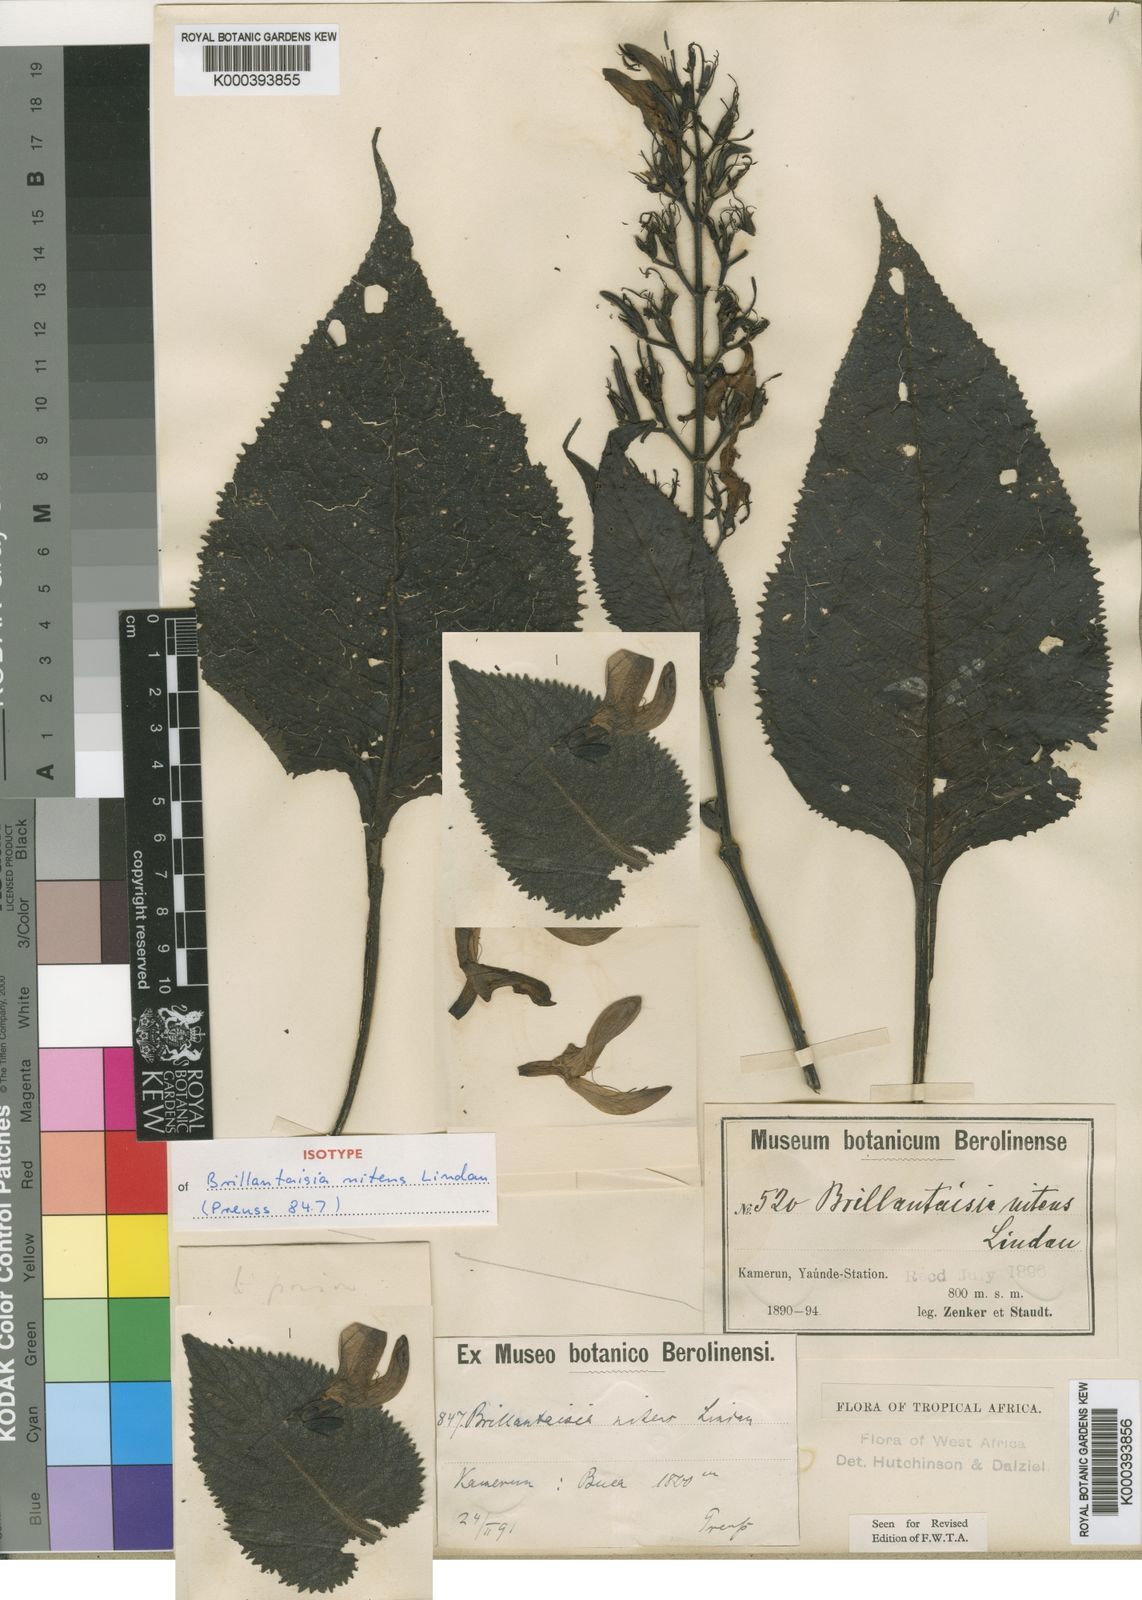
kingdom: Plantae
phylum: Tracheophyta
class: Magnoliopsida
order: Lamiales
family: Acanthaceae
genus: Brillantaisia
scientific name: Brillantaisia owariensis
